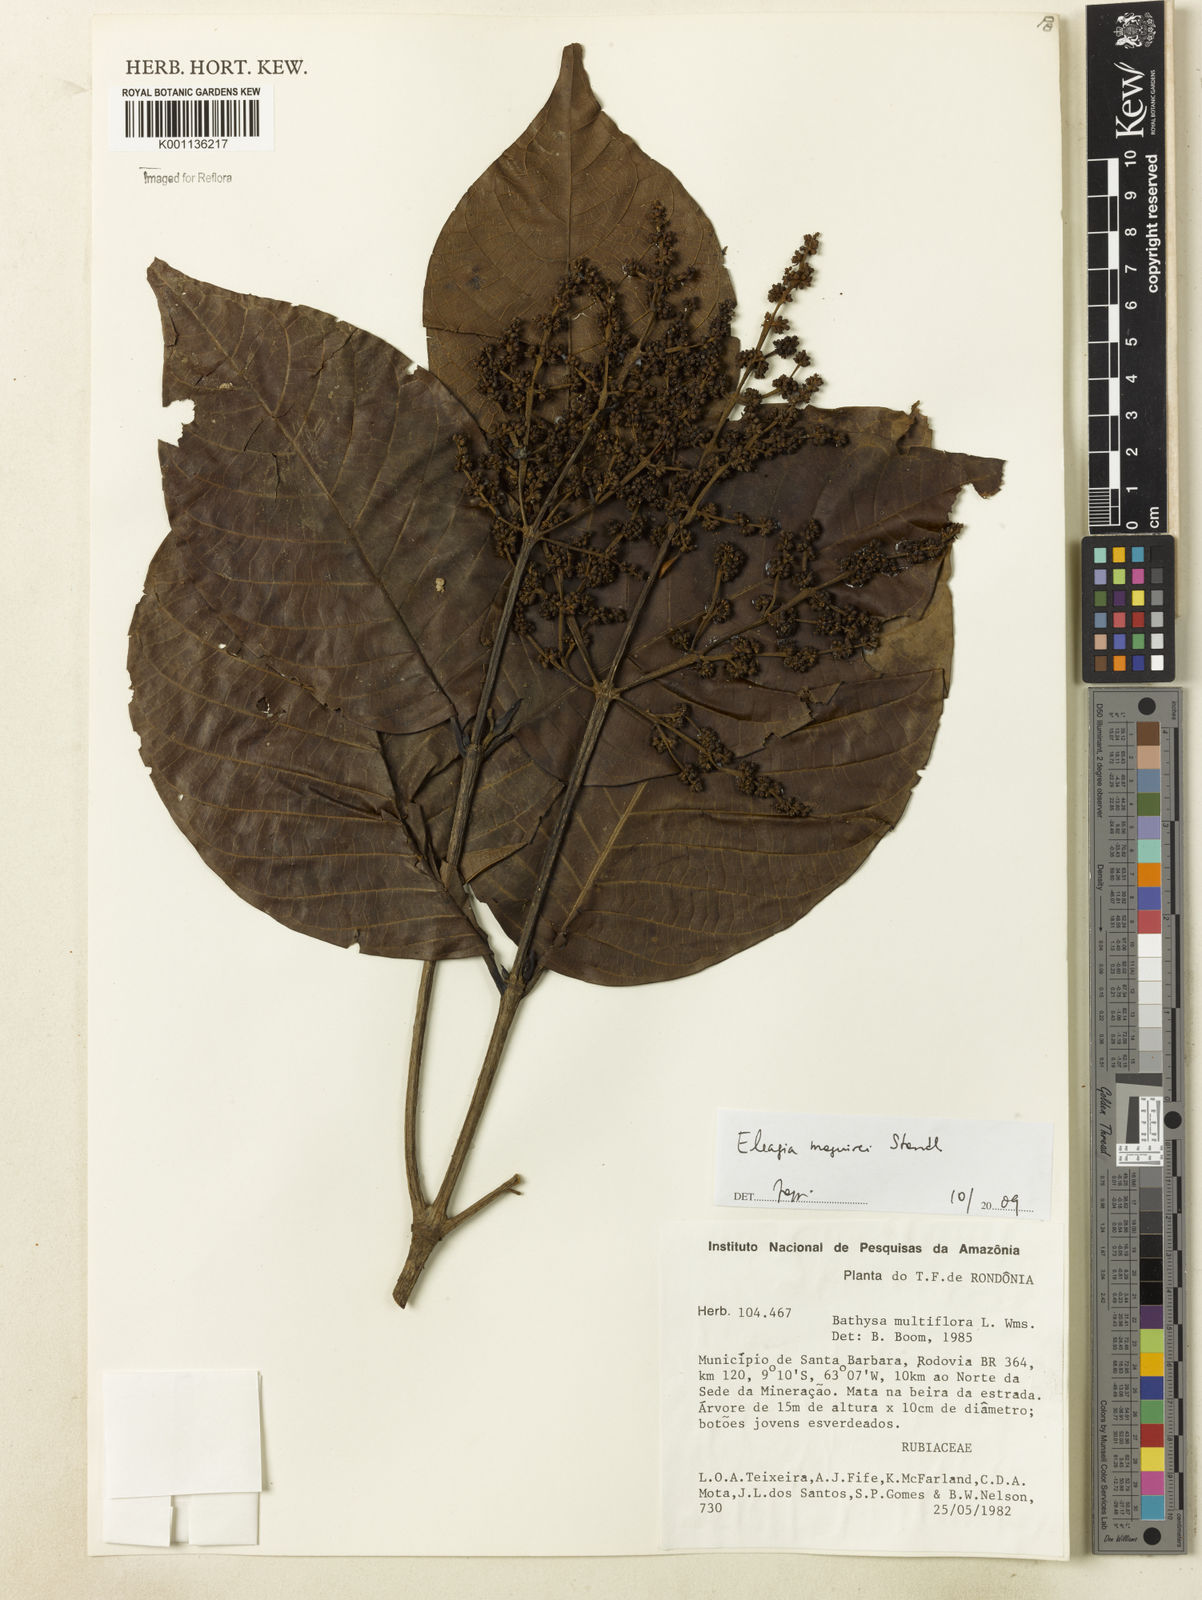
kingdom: Plantae
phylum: Tracheophyta
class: Magnoliopsida
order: Gentianales
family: Rubiaceae
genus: Elaeagia
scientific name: Elaeagia maguirei
